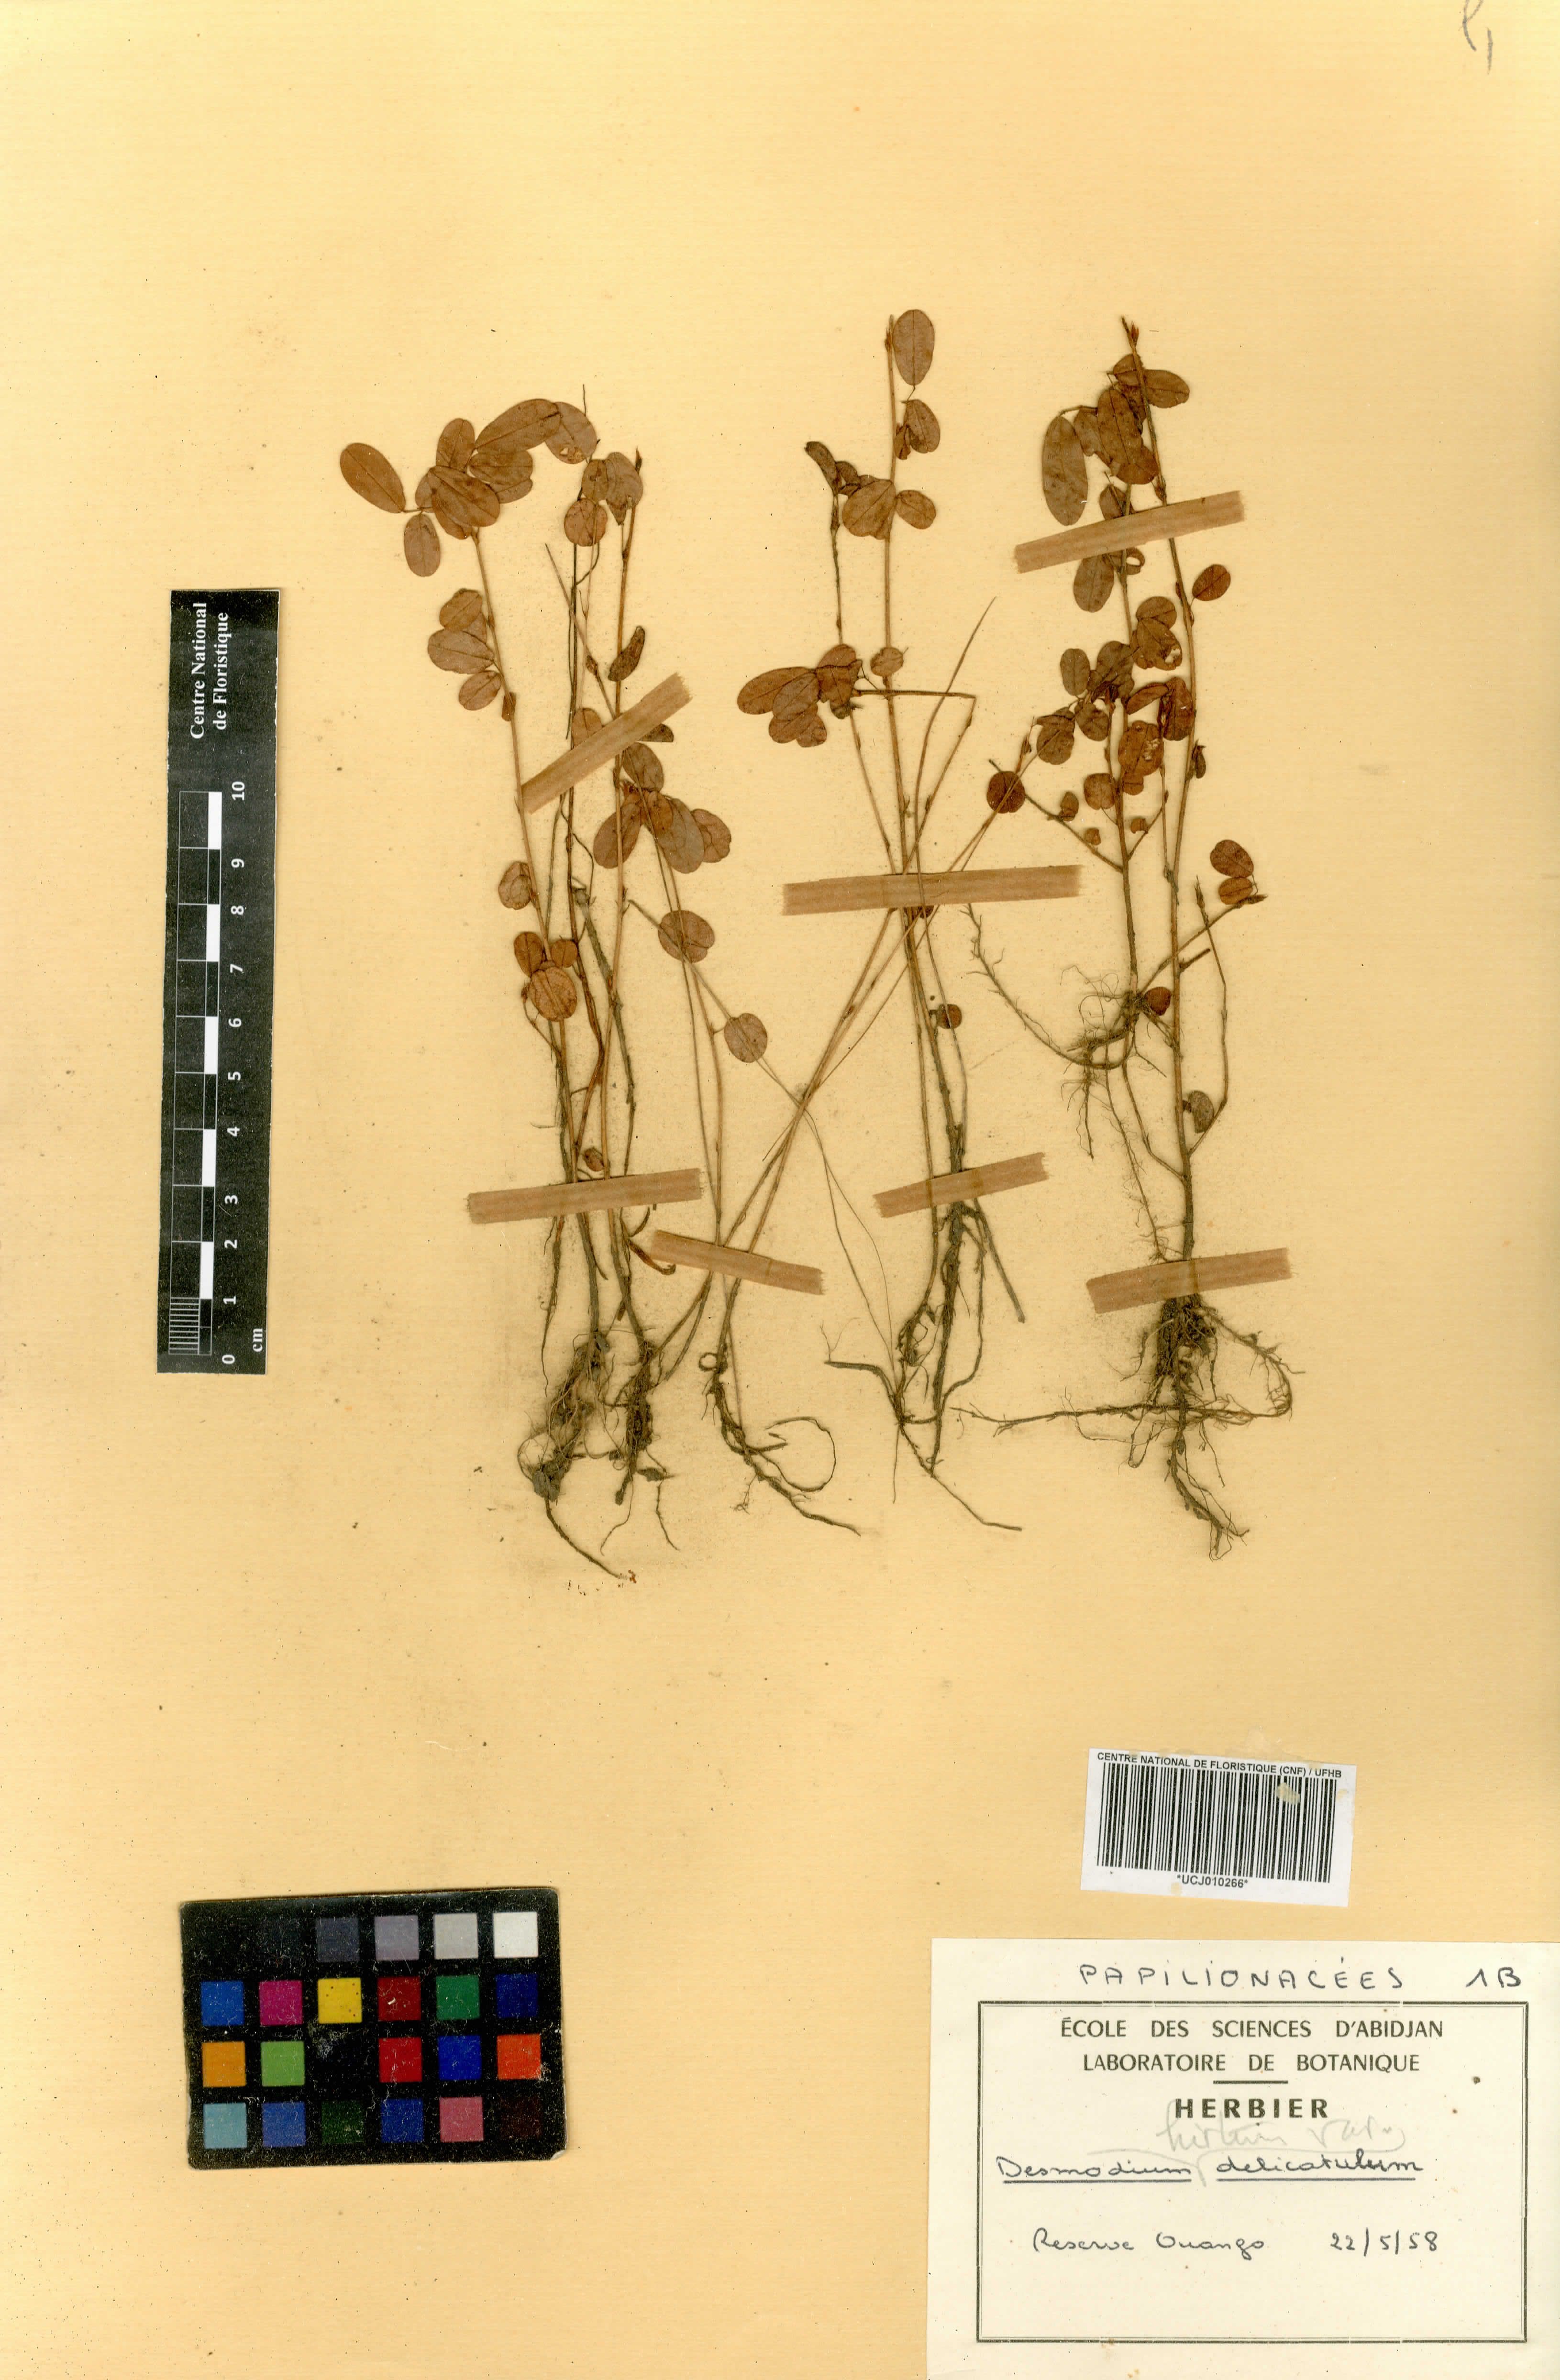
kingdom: Plantae
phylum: Tracheophyta
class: Magnoliopsida
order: Fabales
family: Fabaceae
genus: Grona
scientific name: Grona hirta
